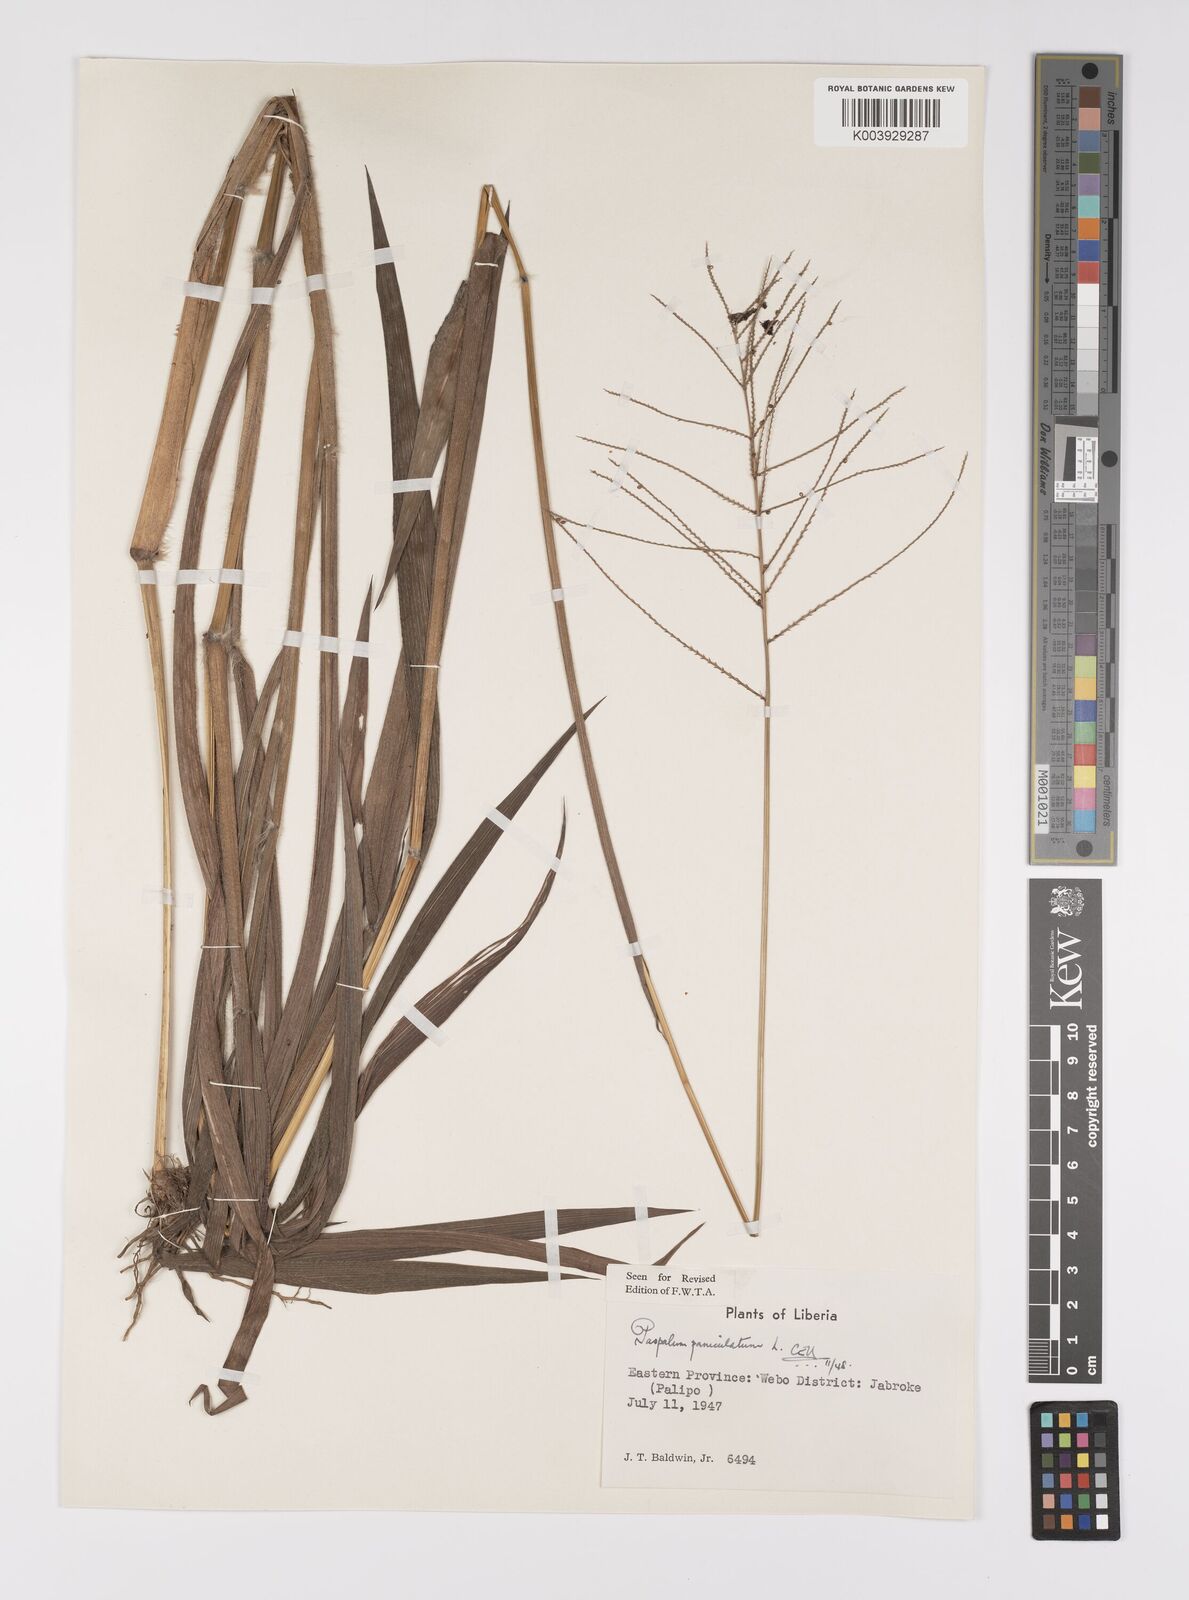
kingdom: Plantae
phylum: Tracheophyta
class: Liliopsida
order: Poales
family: Poaceae
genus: Paspalum
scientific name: Paspalum paniculatum
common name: Arrocillo
